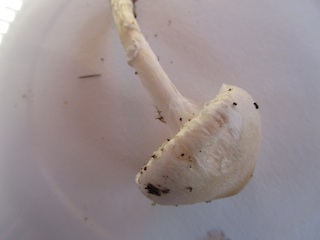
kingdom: Fungi
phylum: Basidiomycota
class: Agaricomycetes
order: Agaricales
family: Strophariaceae
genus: Pholiota
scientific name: Pholiota lenta
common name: løv-skælhat
